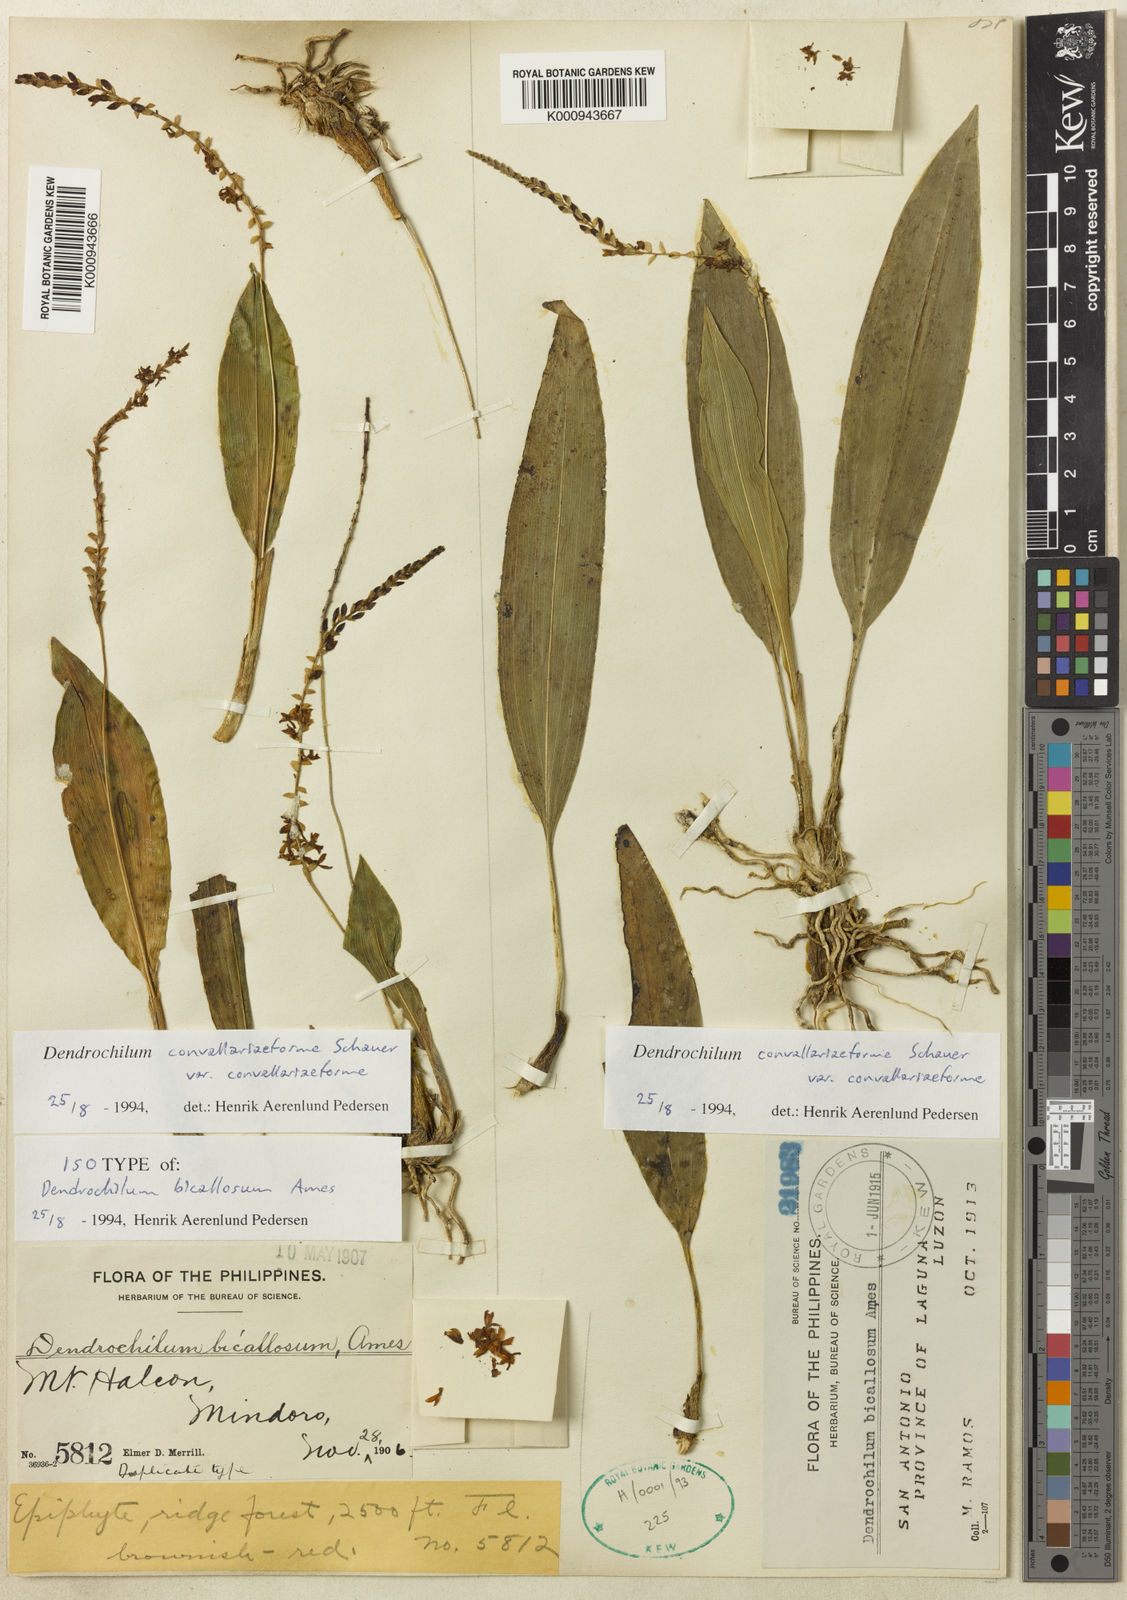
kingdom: Plantae
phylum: Tracheophyta
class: Liliopsida
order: Asparagales
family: Orchidaceae
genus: Coelogyne
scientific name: Coelogyne convallariiformis
